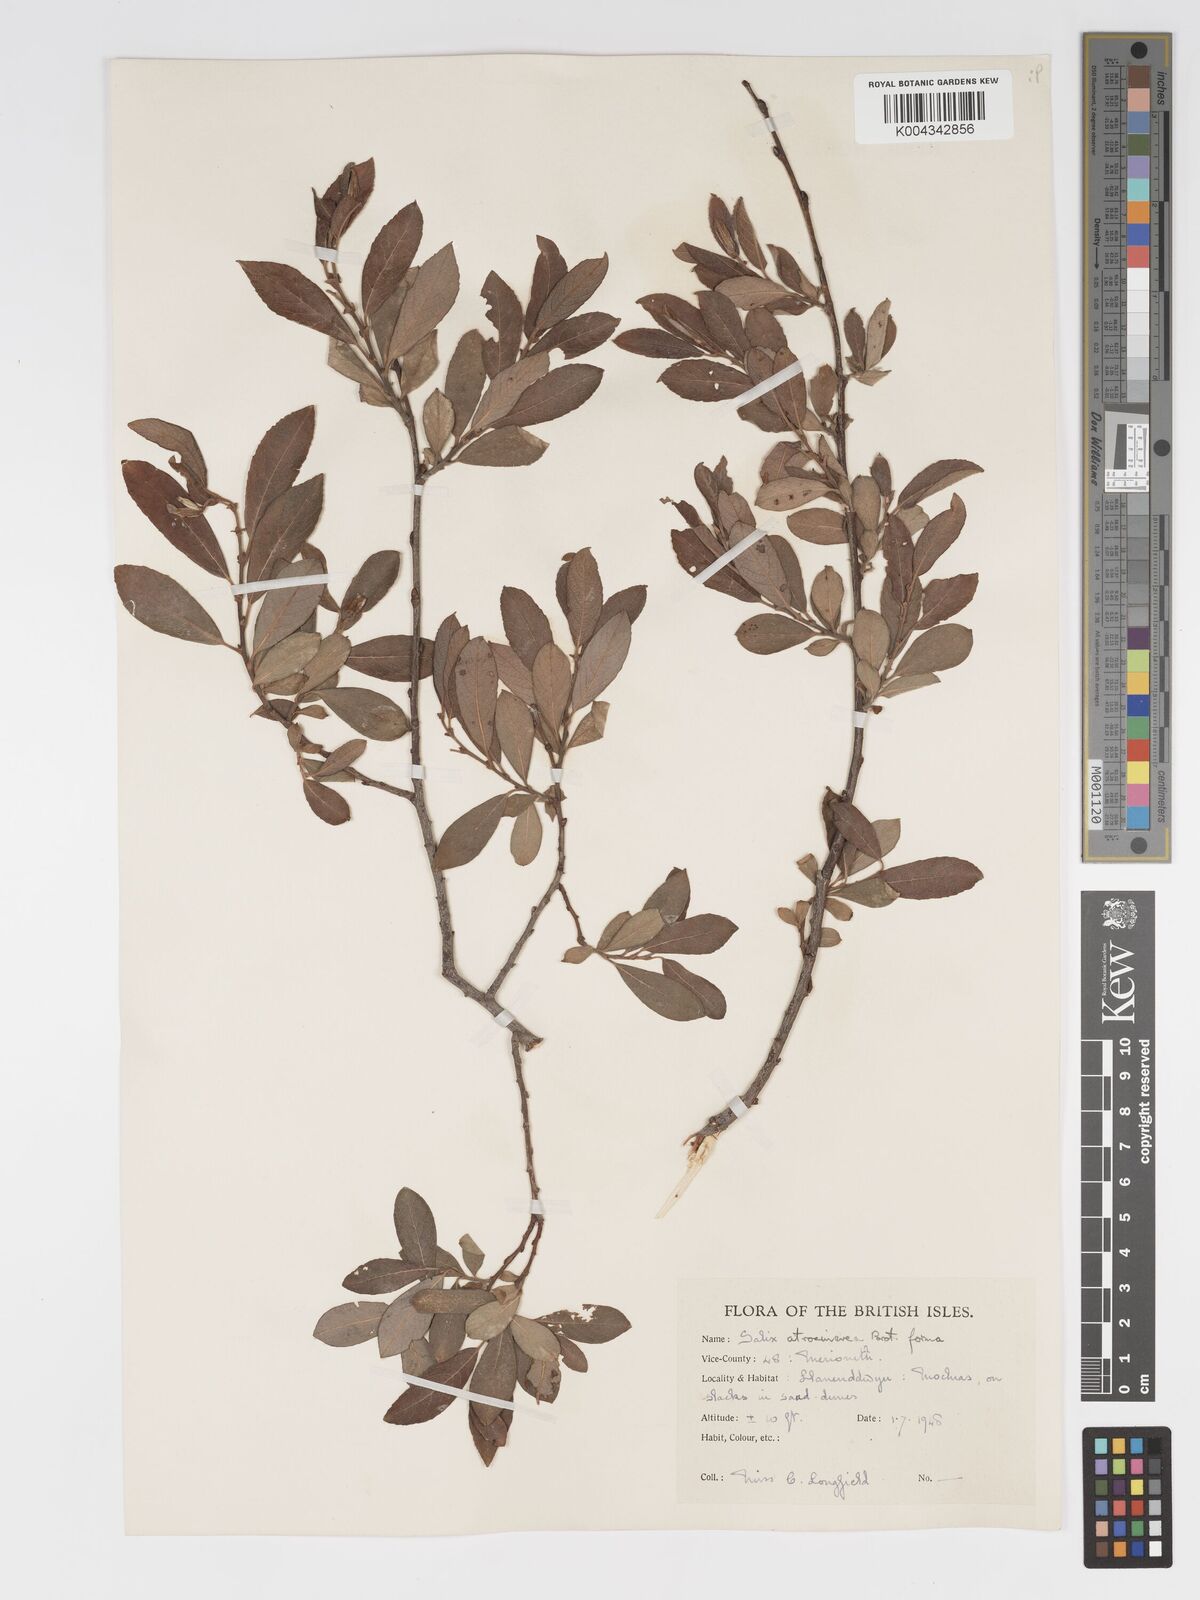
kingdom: Plantae
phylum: Tracheophyta
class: Magnoliopsida
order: Malpighiales
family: Salicaceae
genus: Salix
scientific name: Salix atrocinerea
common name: Rusty willow
